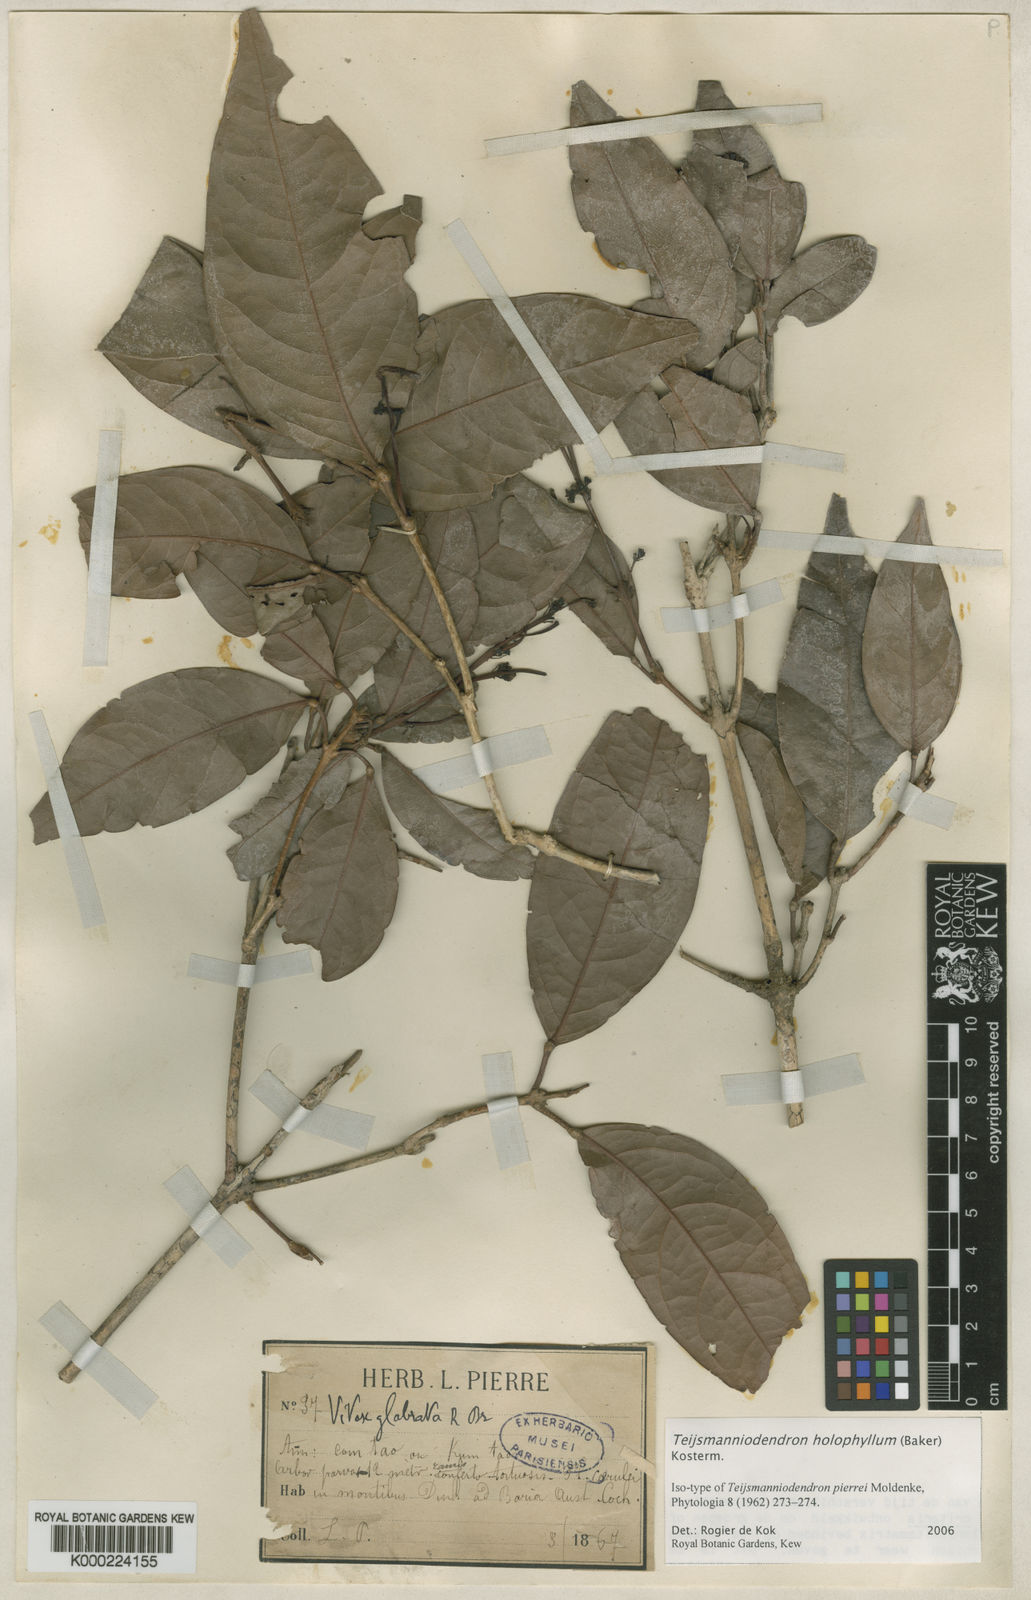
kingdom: Plantae
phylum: Tracheophyta
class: Magnoliopsida
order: Lamiales
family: Lamiaceae
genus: Teijsmanniodendron
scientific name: Teijsmanniodendron
